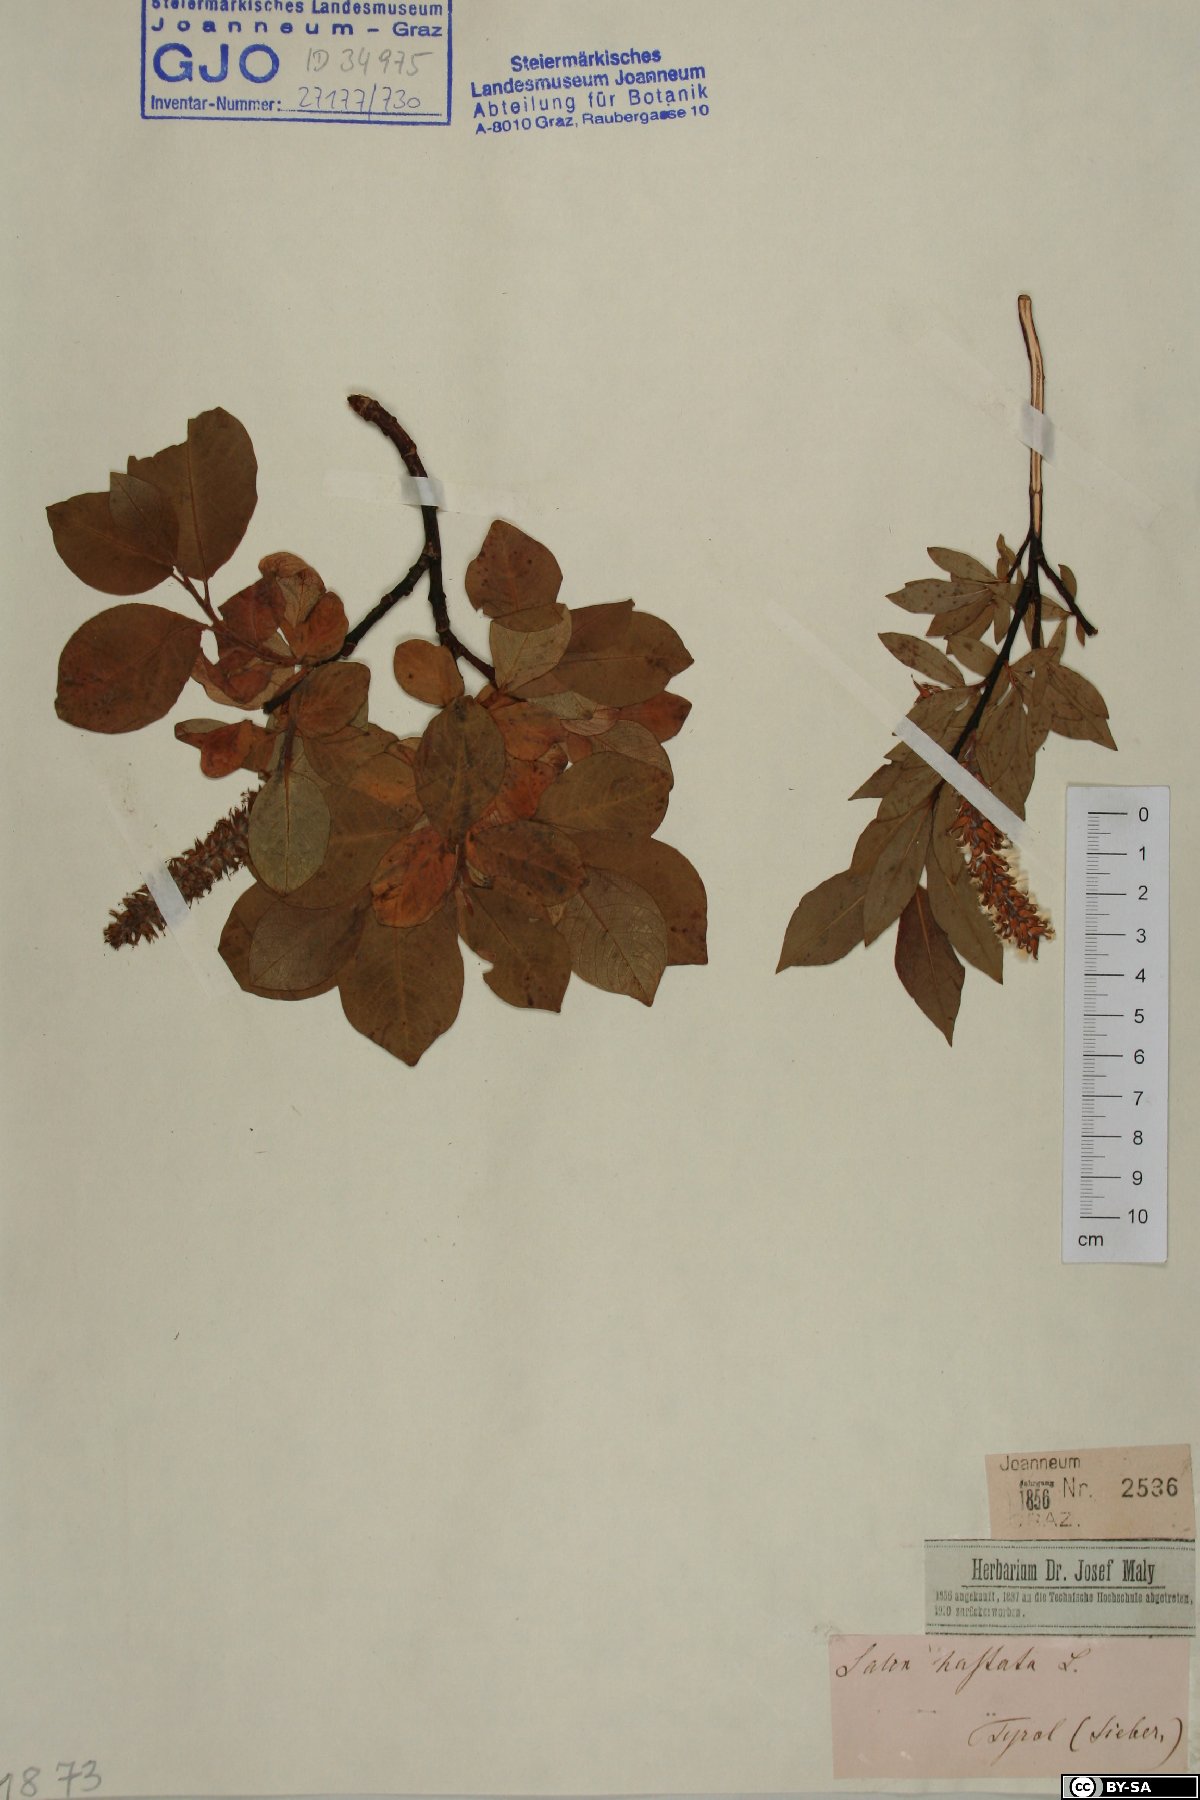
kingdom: Plantae
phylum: Tracheophyta
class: Magnoliopsida
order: Malpighiales
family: Salicaceae
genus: Salix
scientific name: Salix hastata
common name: Halberd willow
